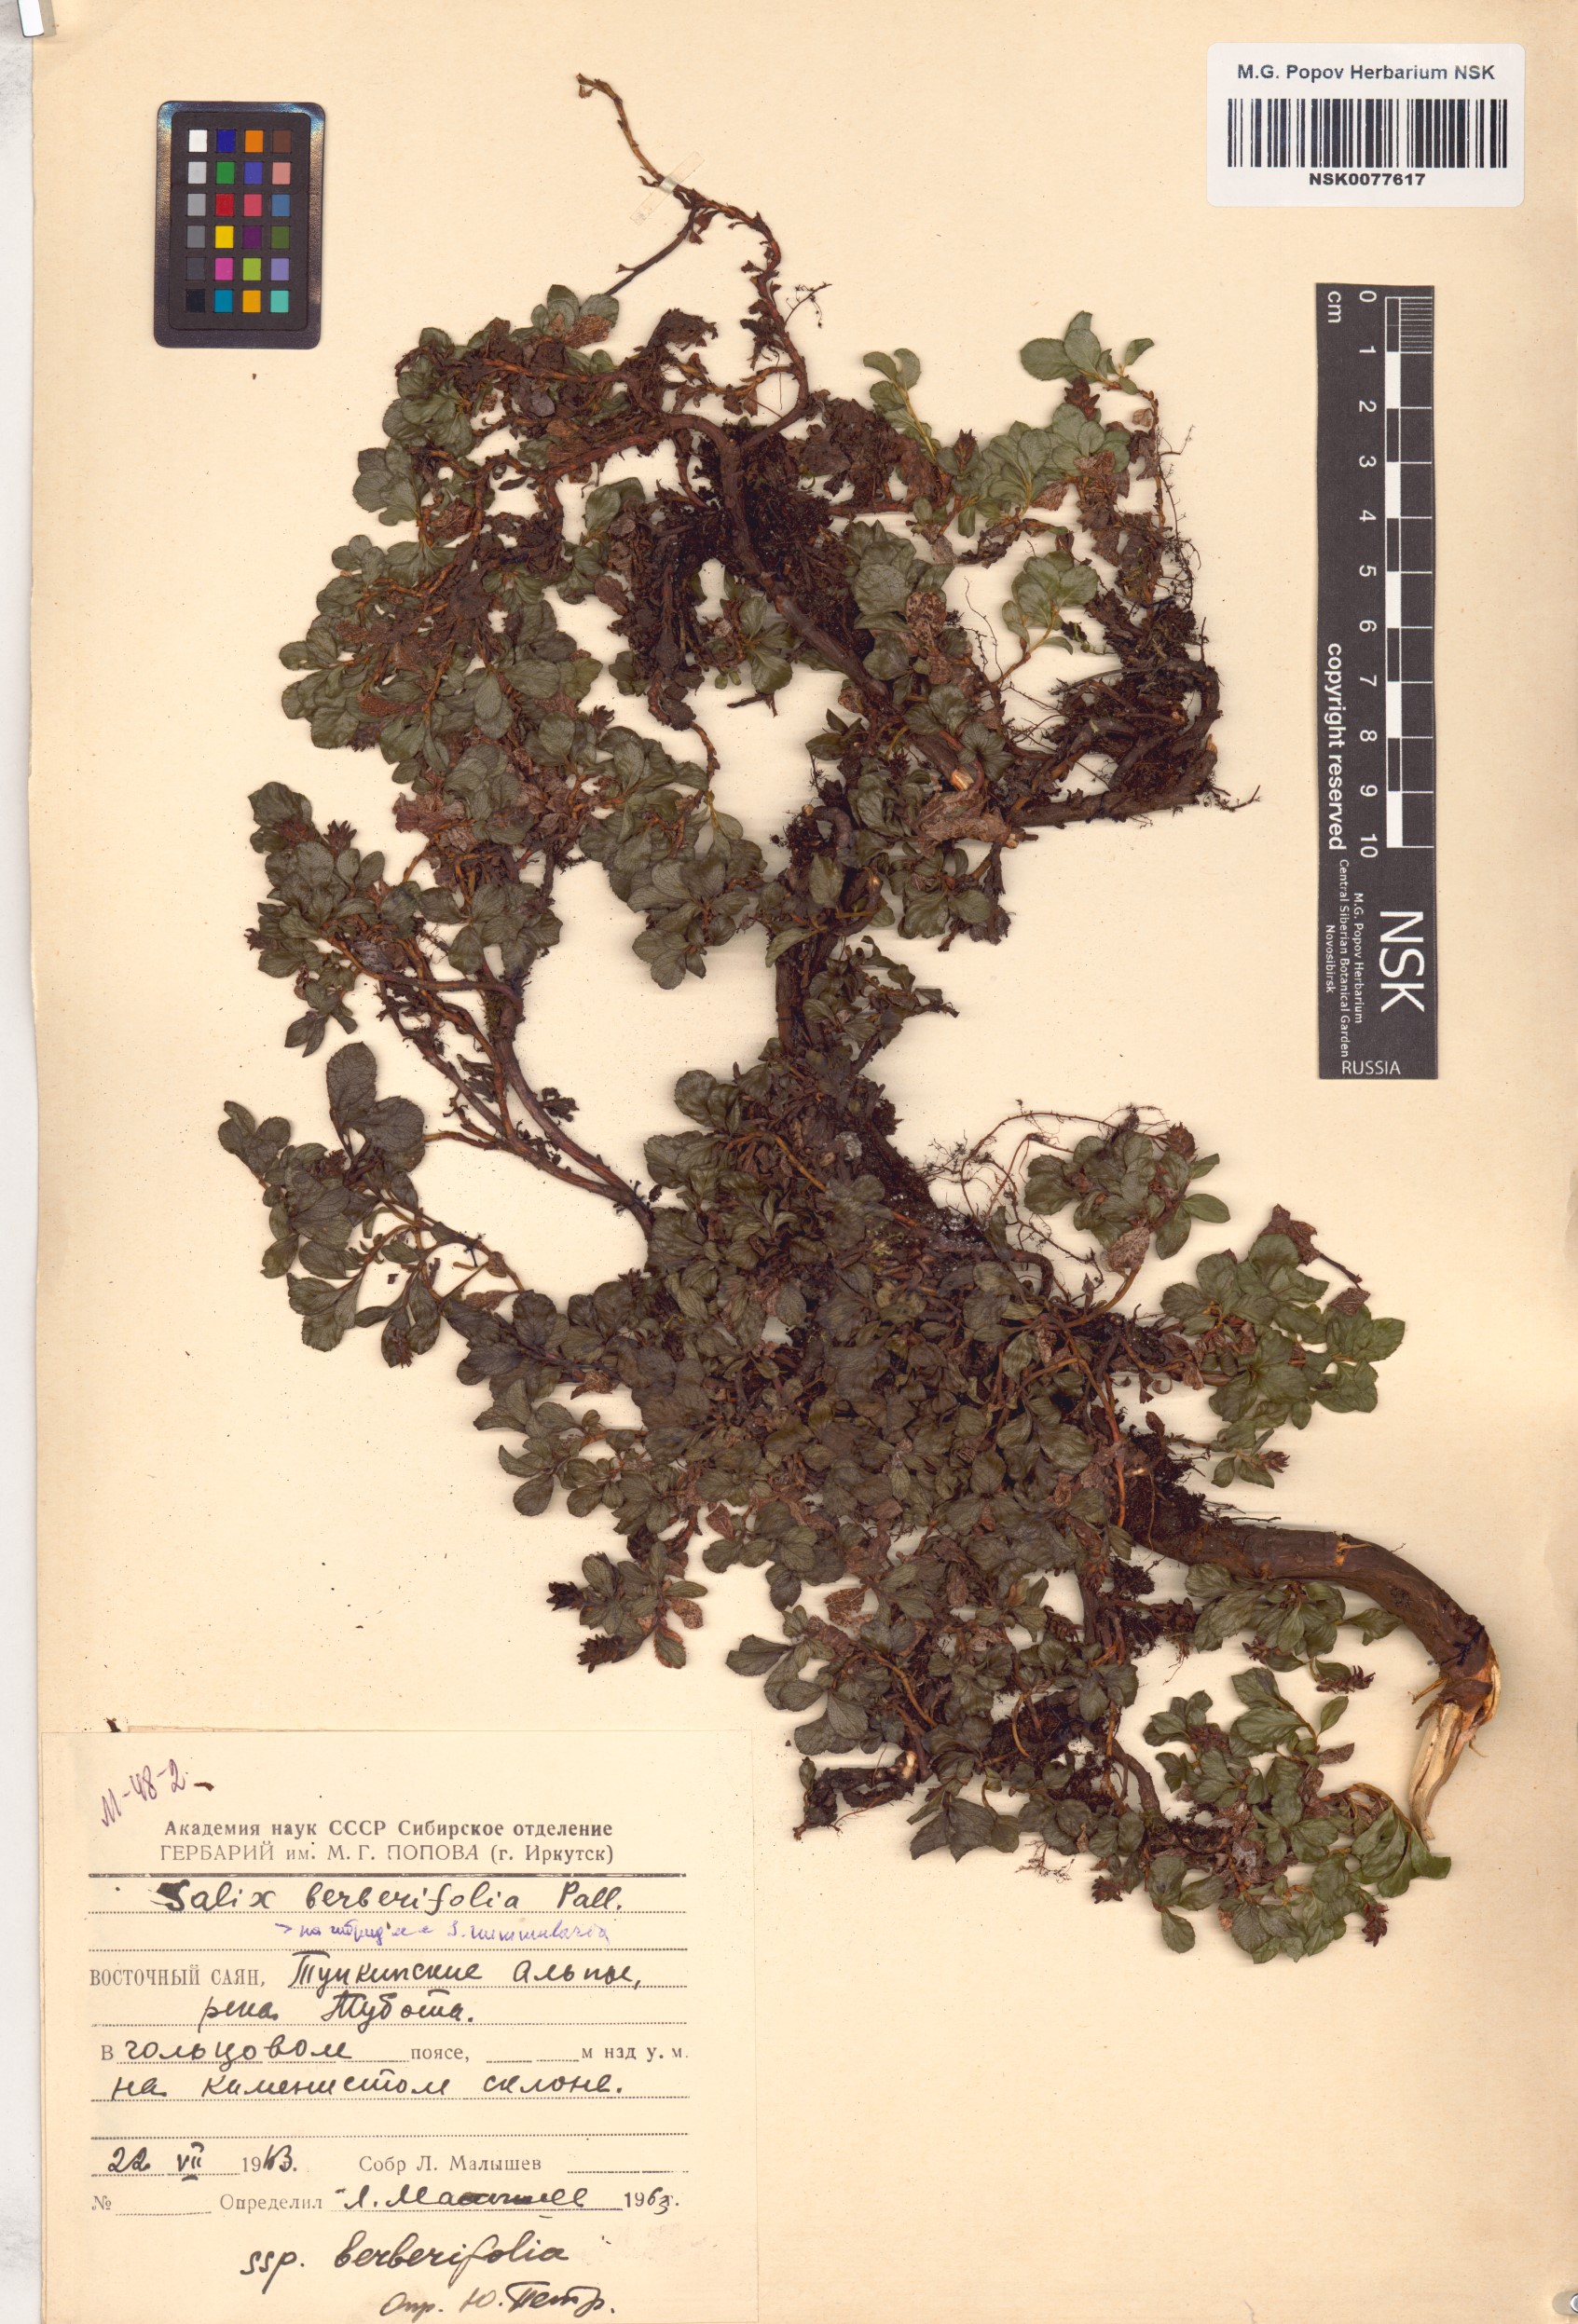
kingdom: Plantae
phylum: Tracheophyta
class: Magnoliopsida
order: Malpighiales
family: Salicaceae
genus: Salix
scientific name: Salix berberifolia
